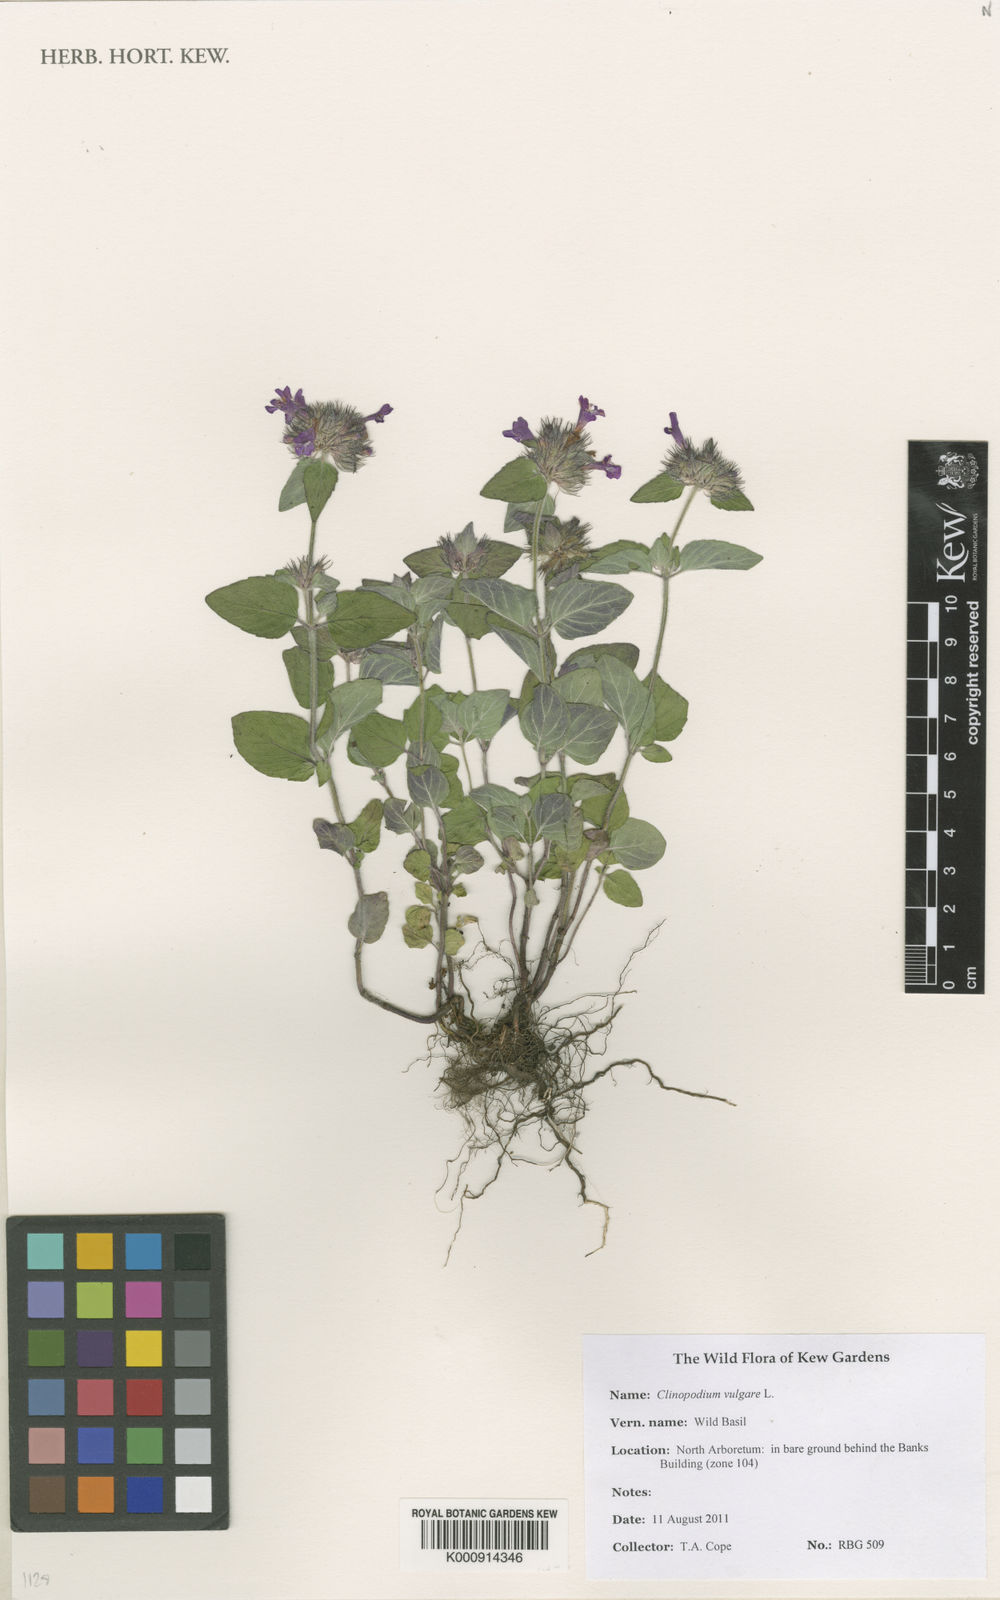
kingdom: Plantae
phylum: Tracheophyta
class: Magnoliopsida
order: Lamiales
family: Lamiaceae
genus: Clinopodium
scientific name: Clinopodium vulgare
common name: Wild basil
